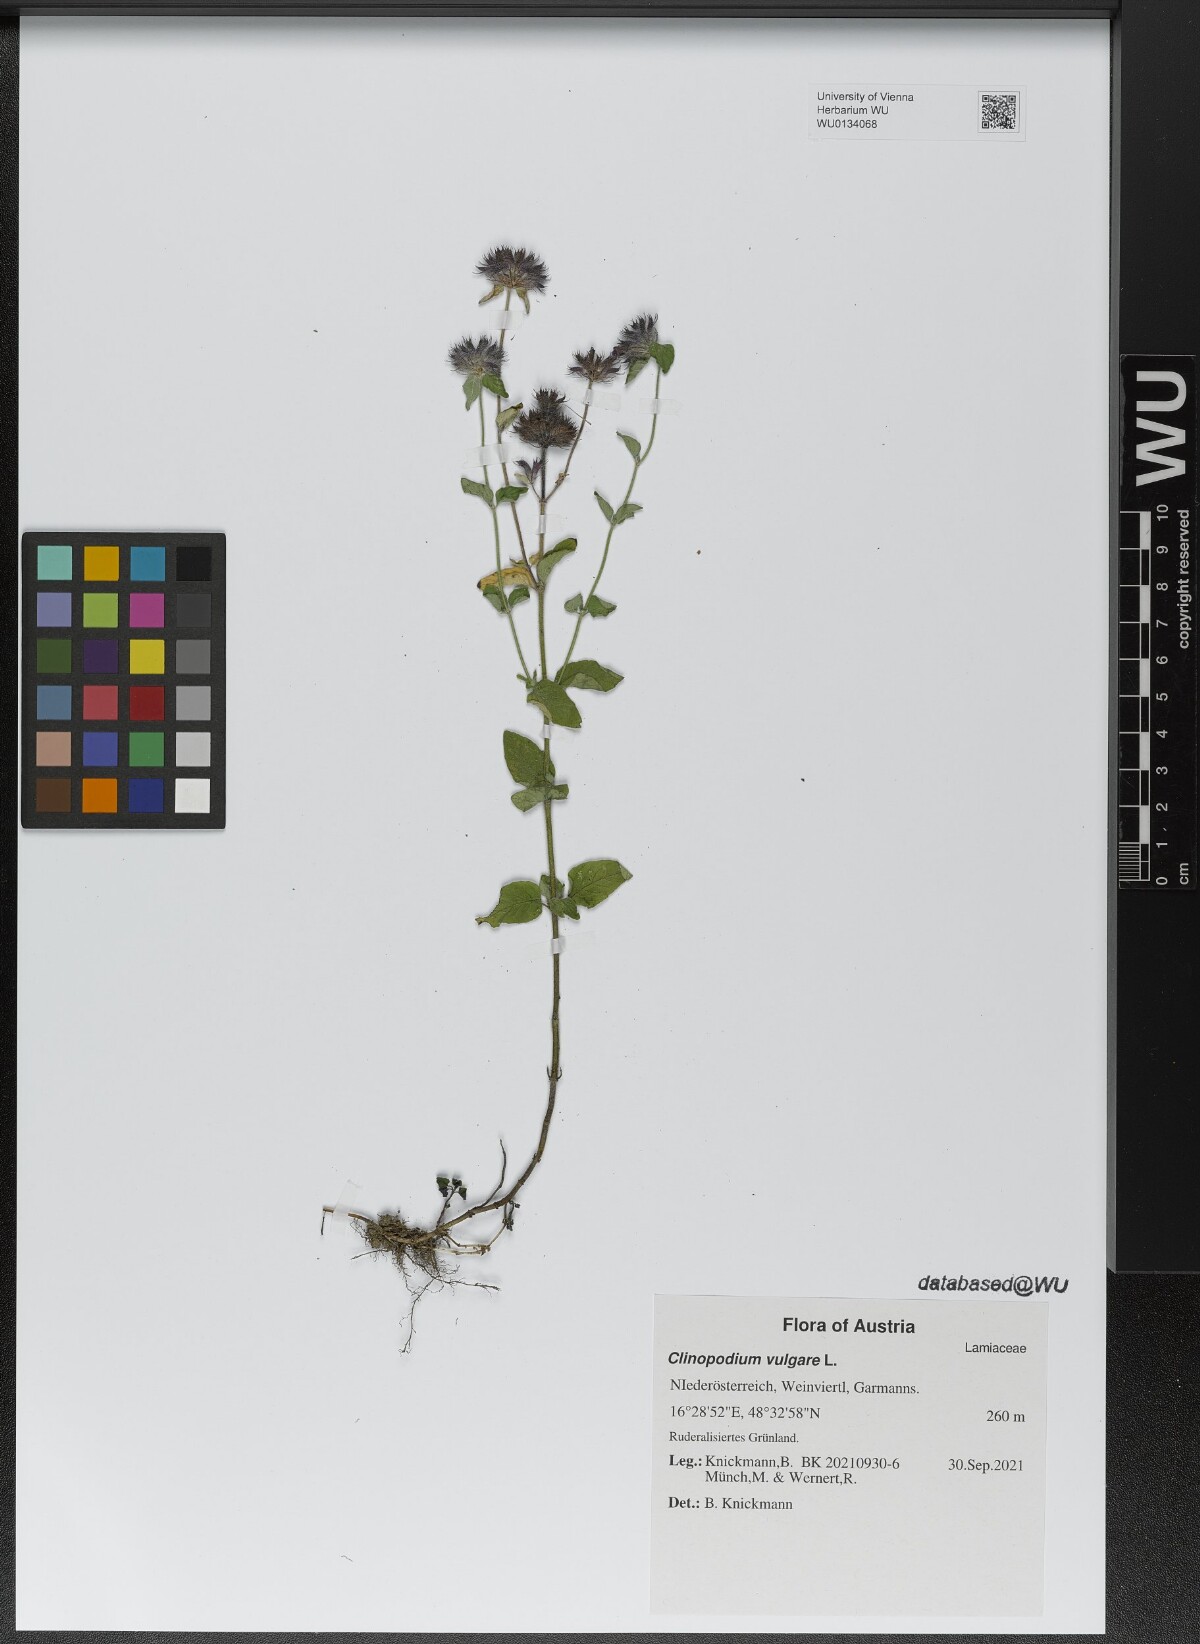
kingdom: Plantae
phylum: Tracheophyta
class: Magnoliopsida
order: Lamiales
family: Lamiaceae
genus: Clinopodium
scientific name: Clinopodium vulgare
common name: Wild basil
